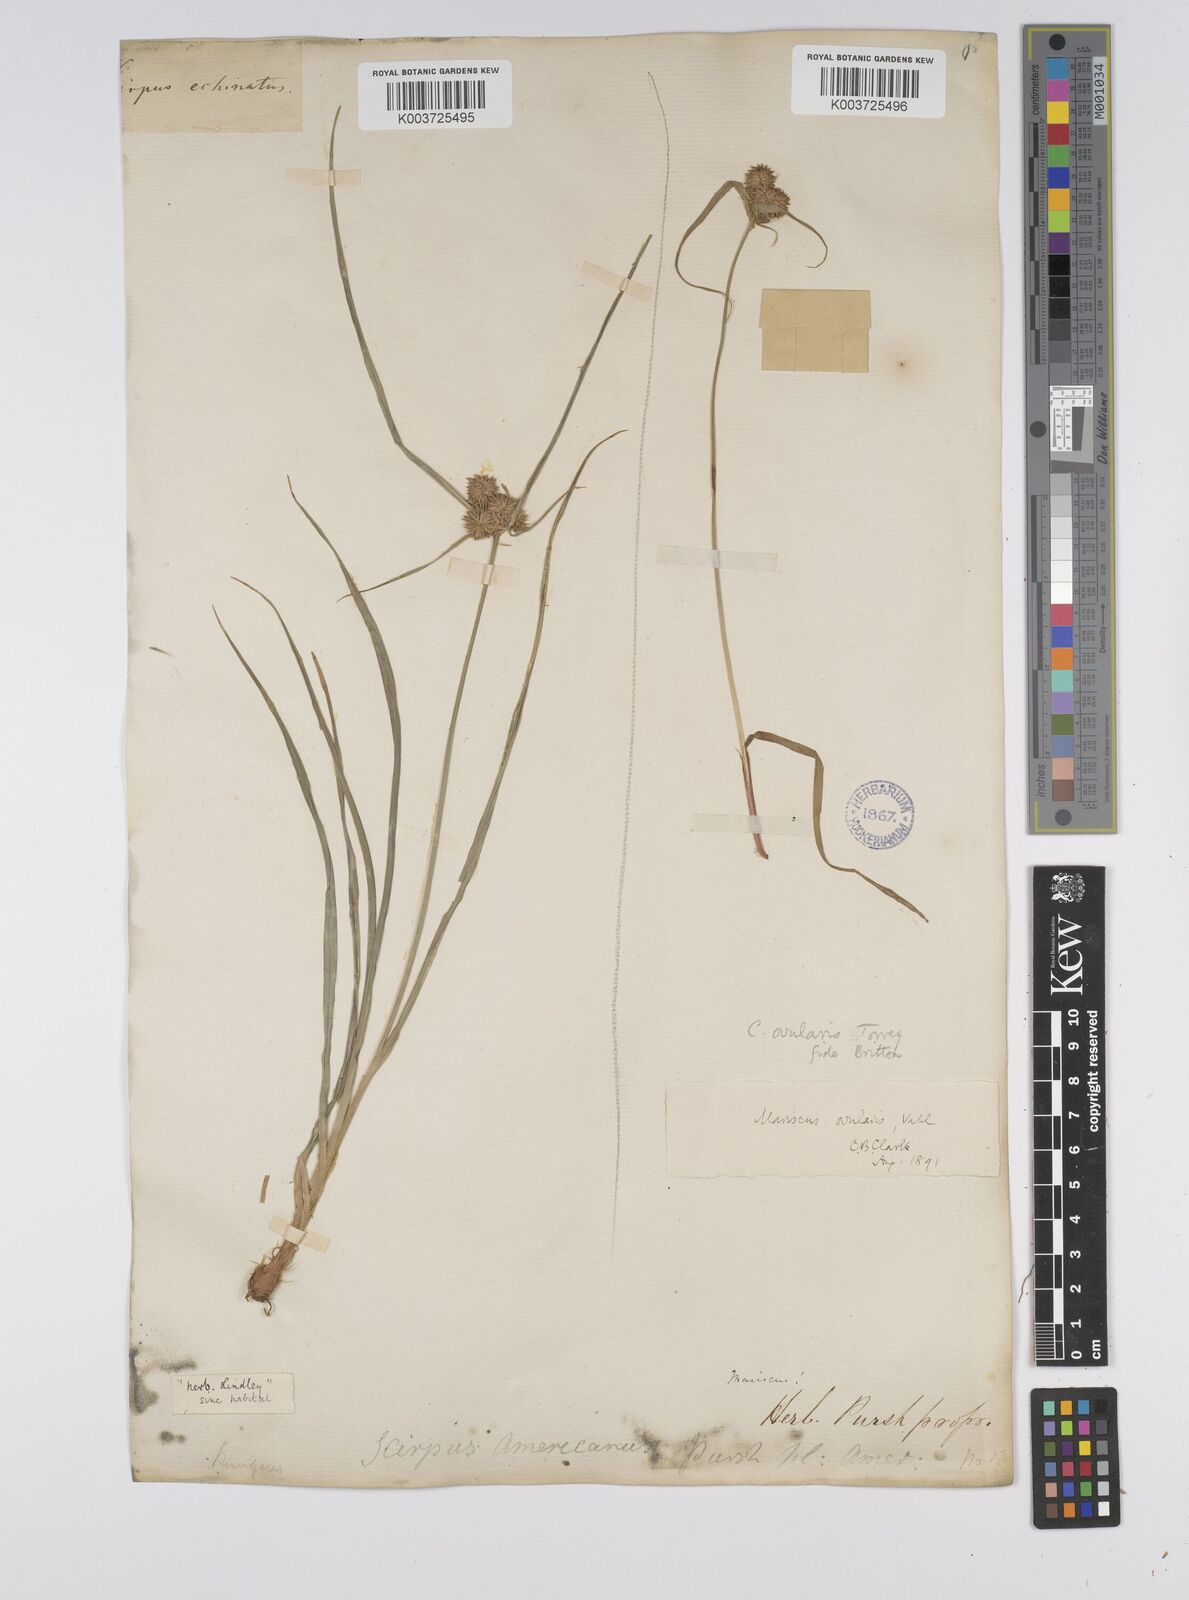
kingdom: Plantae
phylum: Tracheophyta
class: Liliopsida
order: Poales
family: Cyperaceae
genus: Cyperus
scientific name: Cyperus echinatus
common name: Teasel sedge
